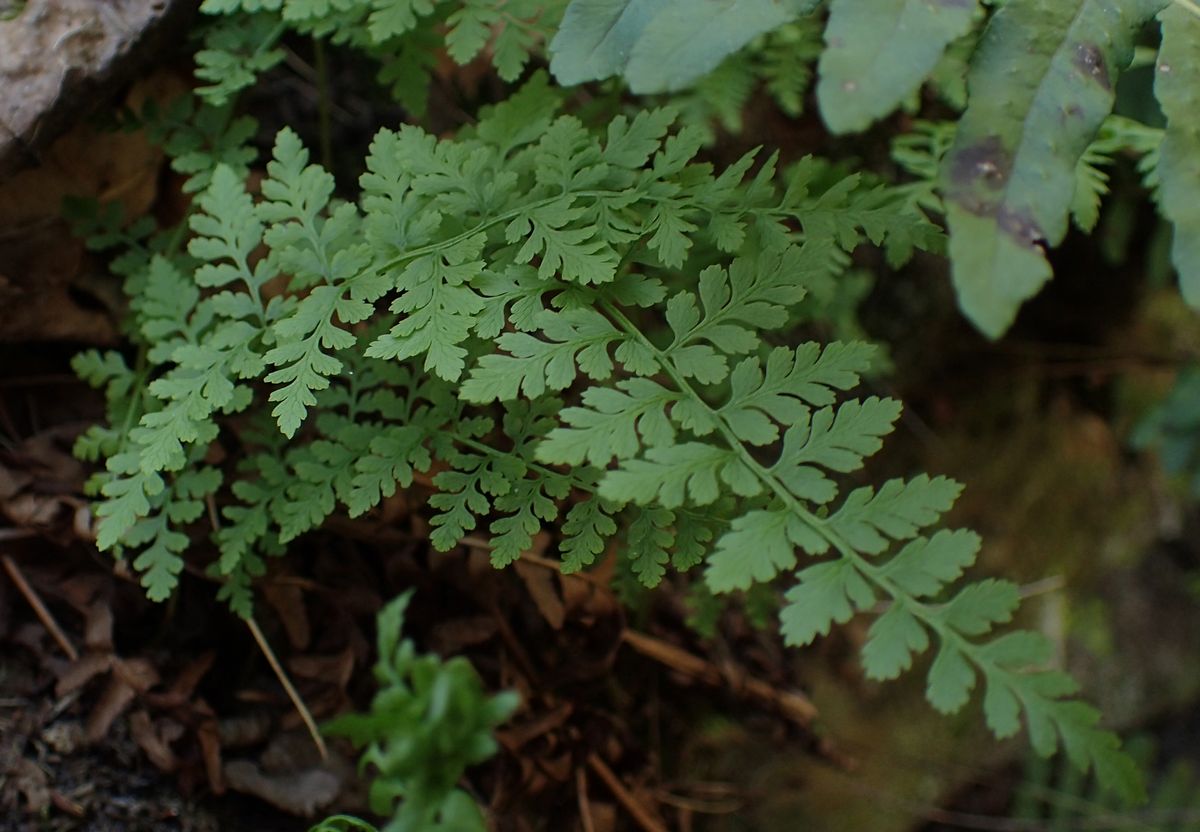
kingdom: Plantae
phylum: Tracheophyta
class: Polypodiopsida
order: Polypodiales
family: Cystopteridaceae
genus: Cystopteris
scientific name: Cystopteris fragilis
